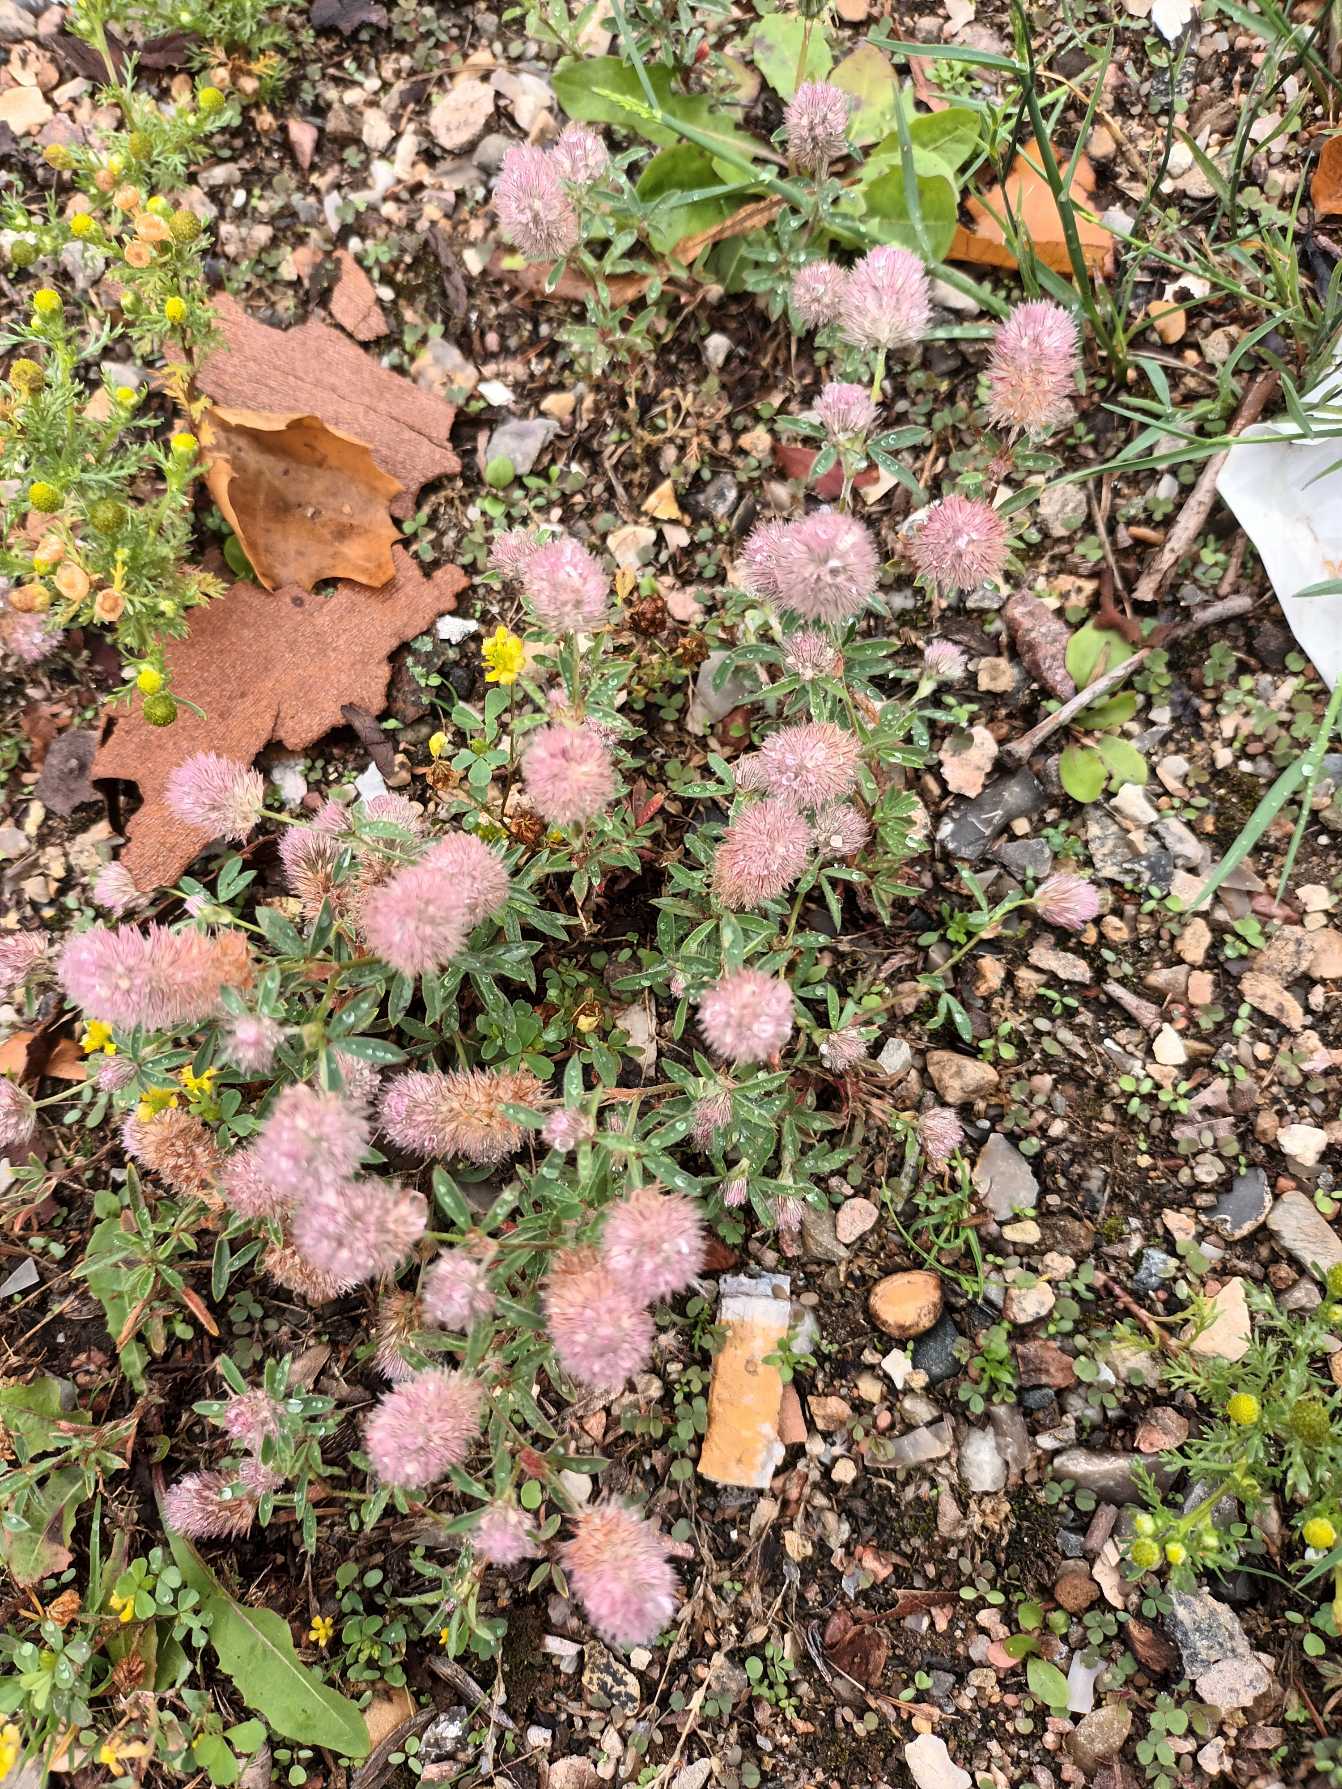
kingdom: Plantae
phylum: Tracheophyta
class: Magnoliopsida
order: Fabales
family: Fabaceae
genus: Trifolium
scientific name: Trifolium arvense
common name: Hare-kløver
